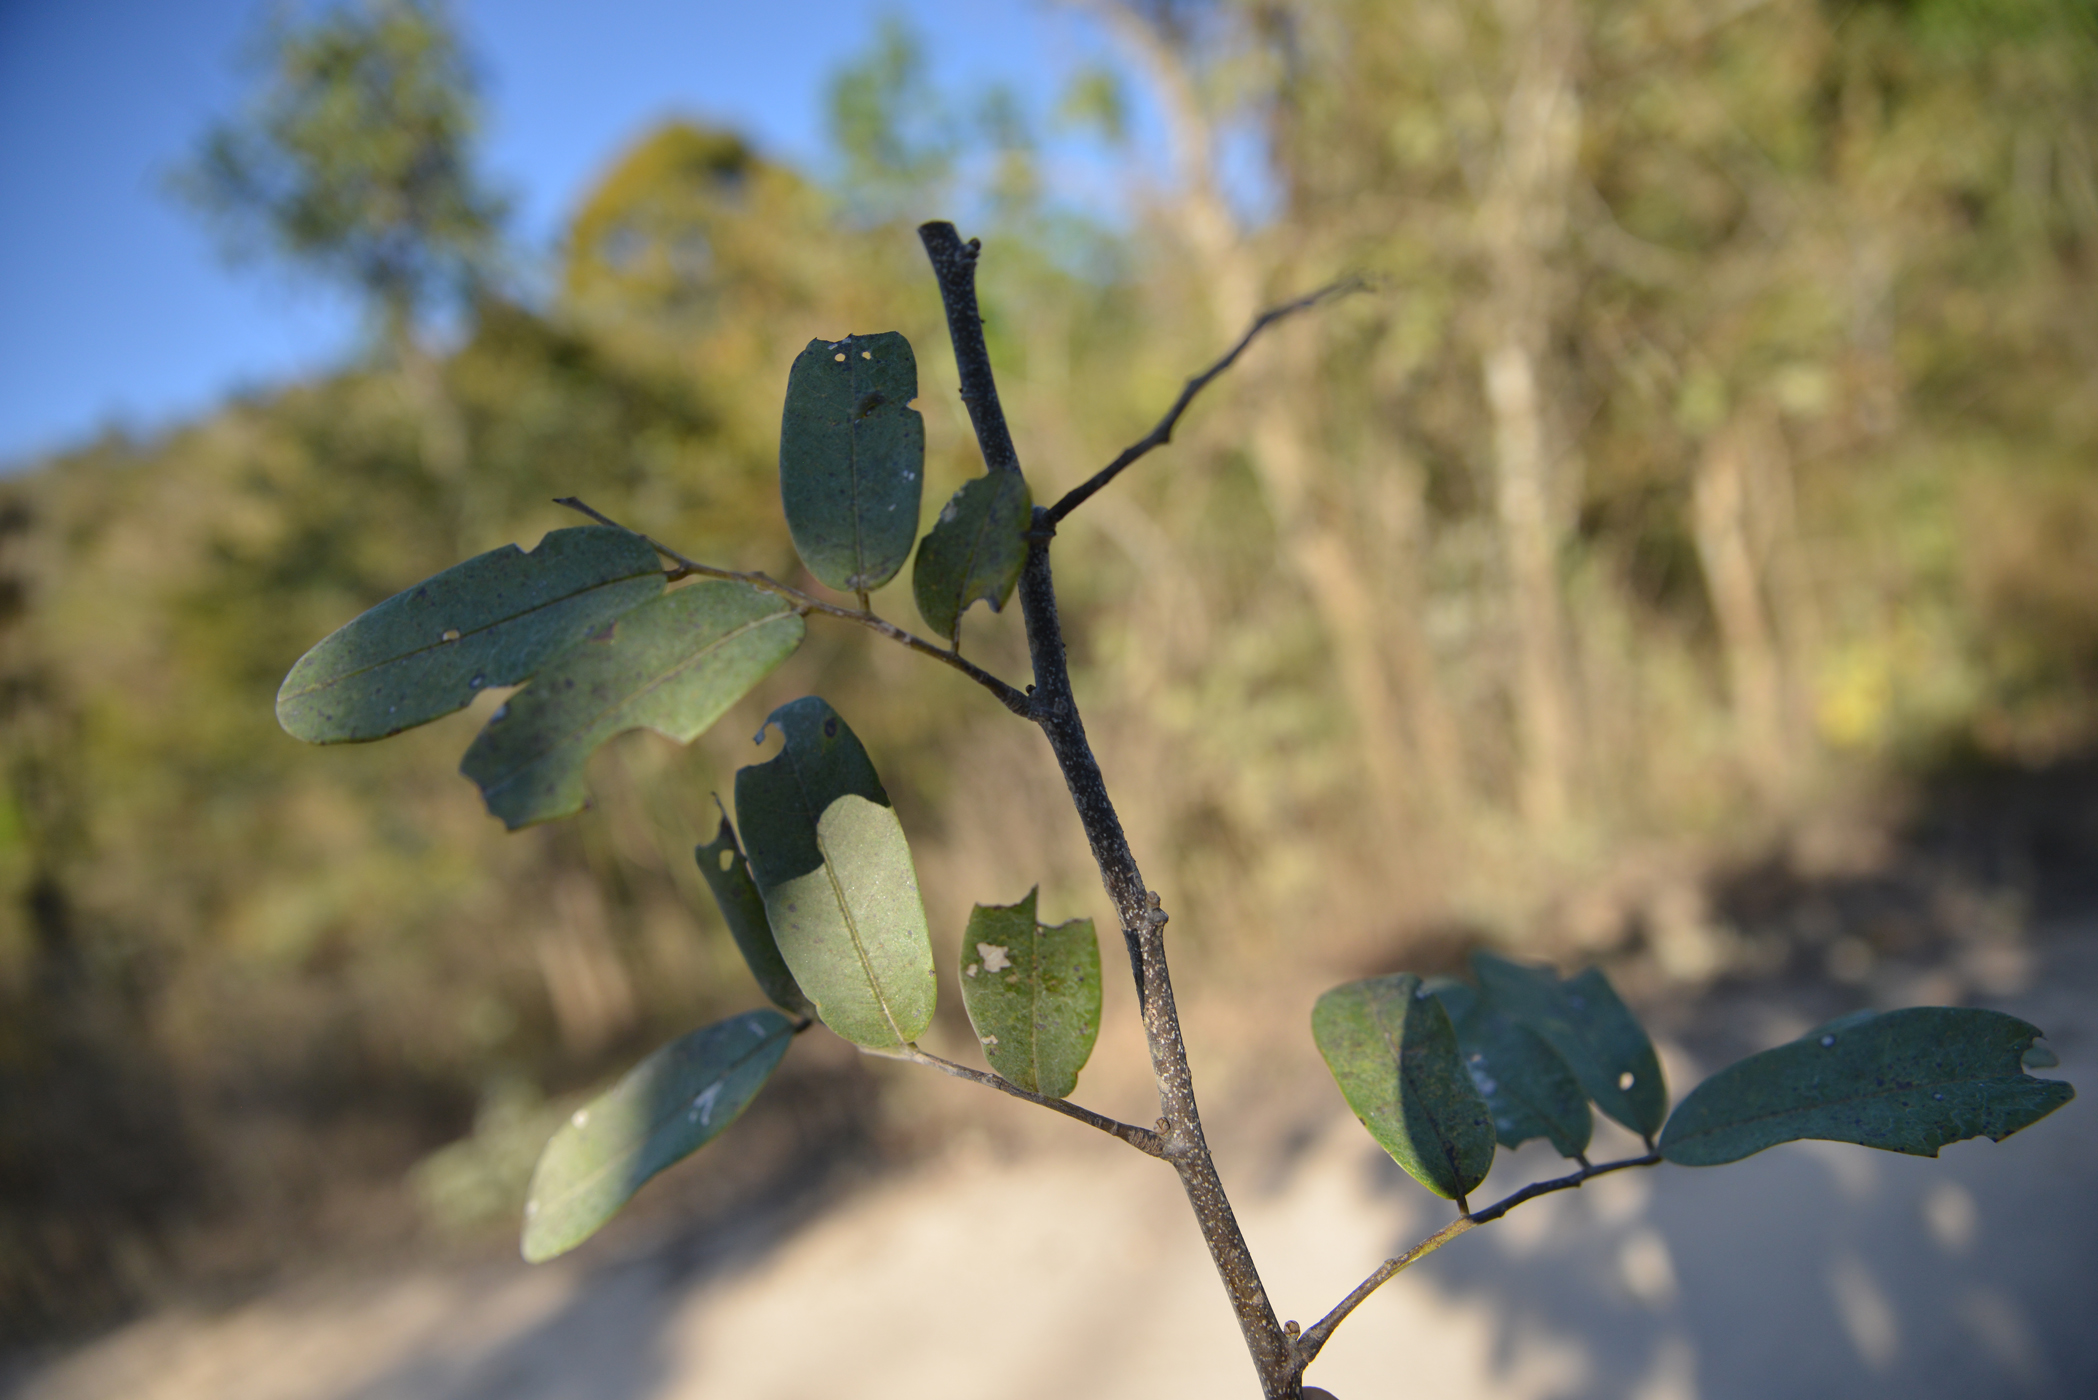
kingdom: Plantae
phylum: Tracheophyta
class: Magnoliopsida
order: Fabales
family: Fabaceae
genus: Dalbergia
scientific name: Dalbergia
